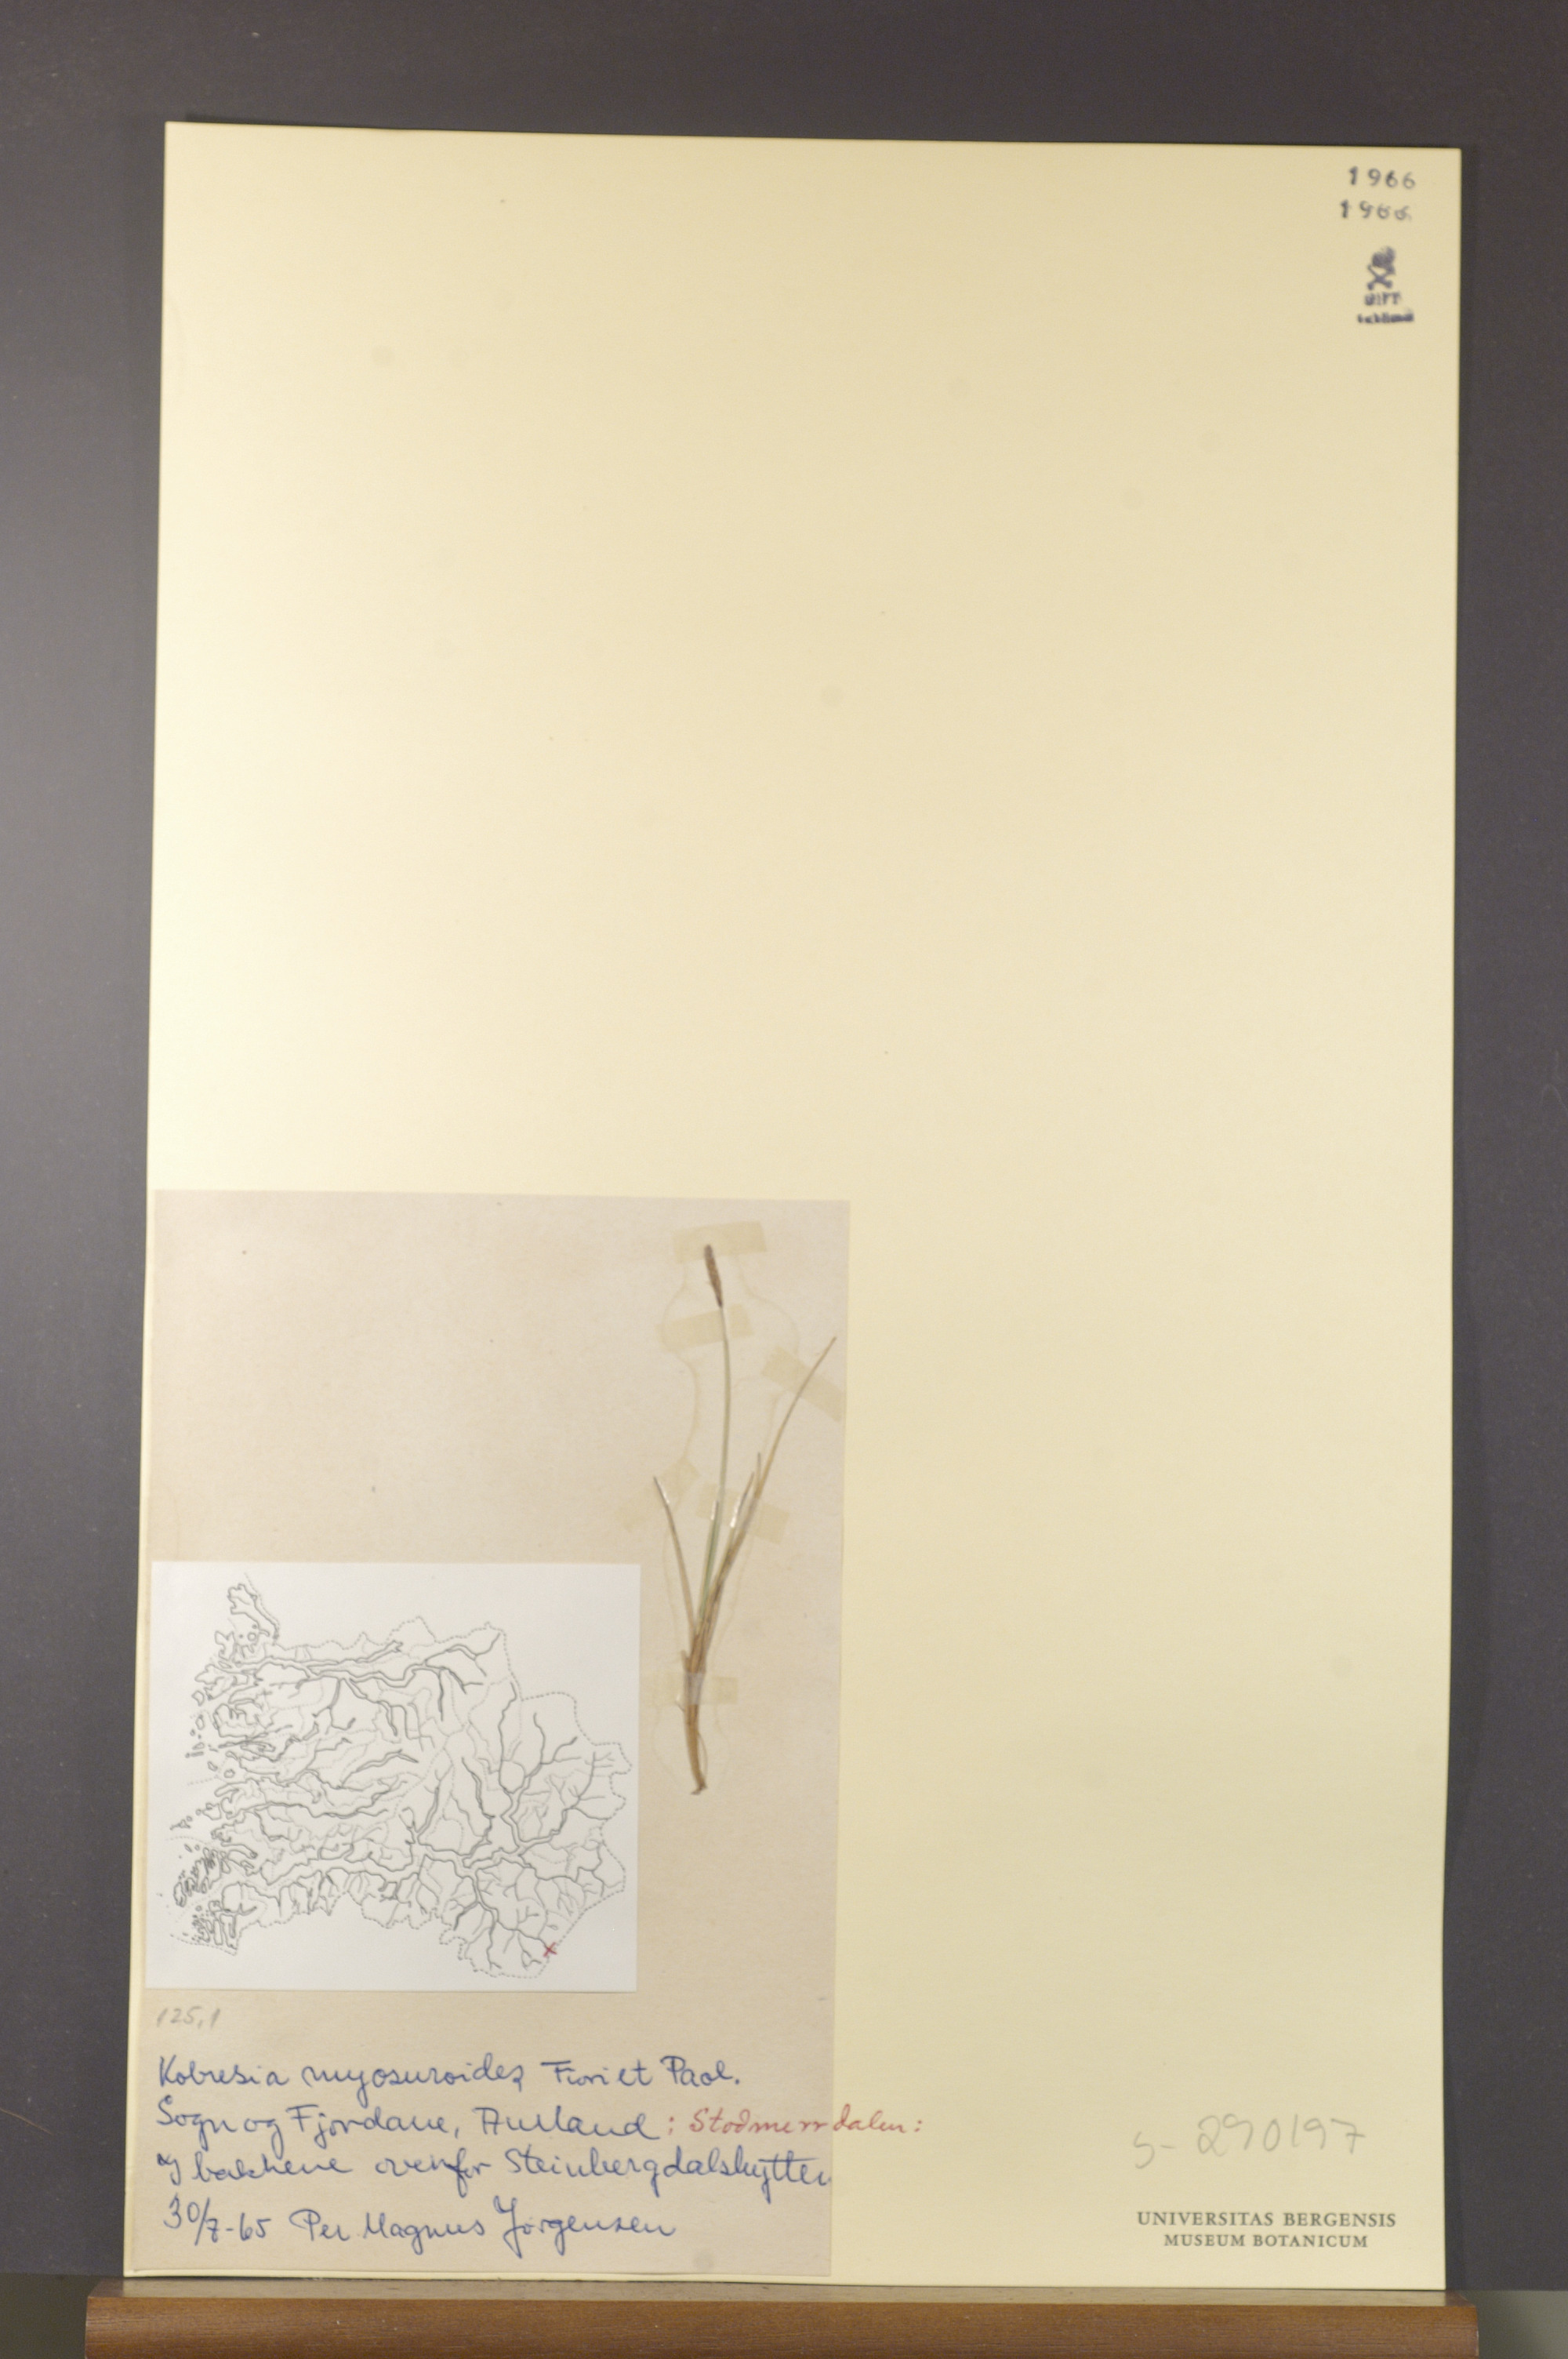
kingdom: Plantae
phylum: Tracheophyta
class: Liliopsida
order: Poales
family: Cyperaceae
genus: Carex
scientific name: Carex myosuroides
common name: Bellard's bog sedge
